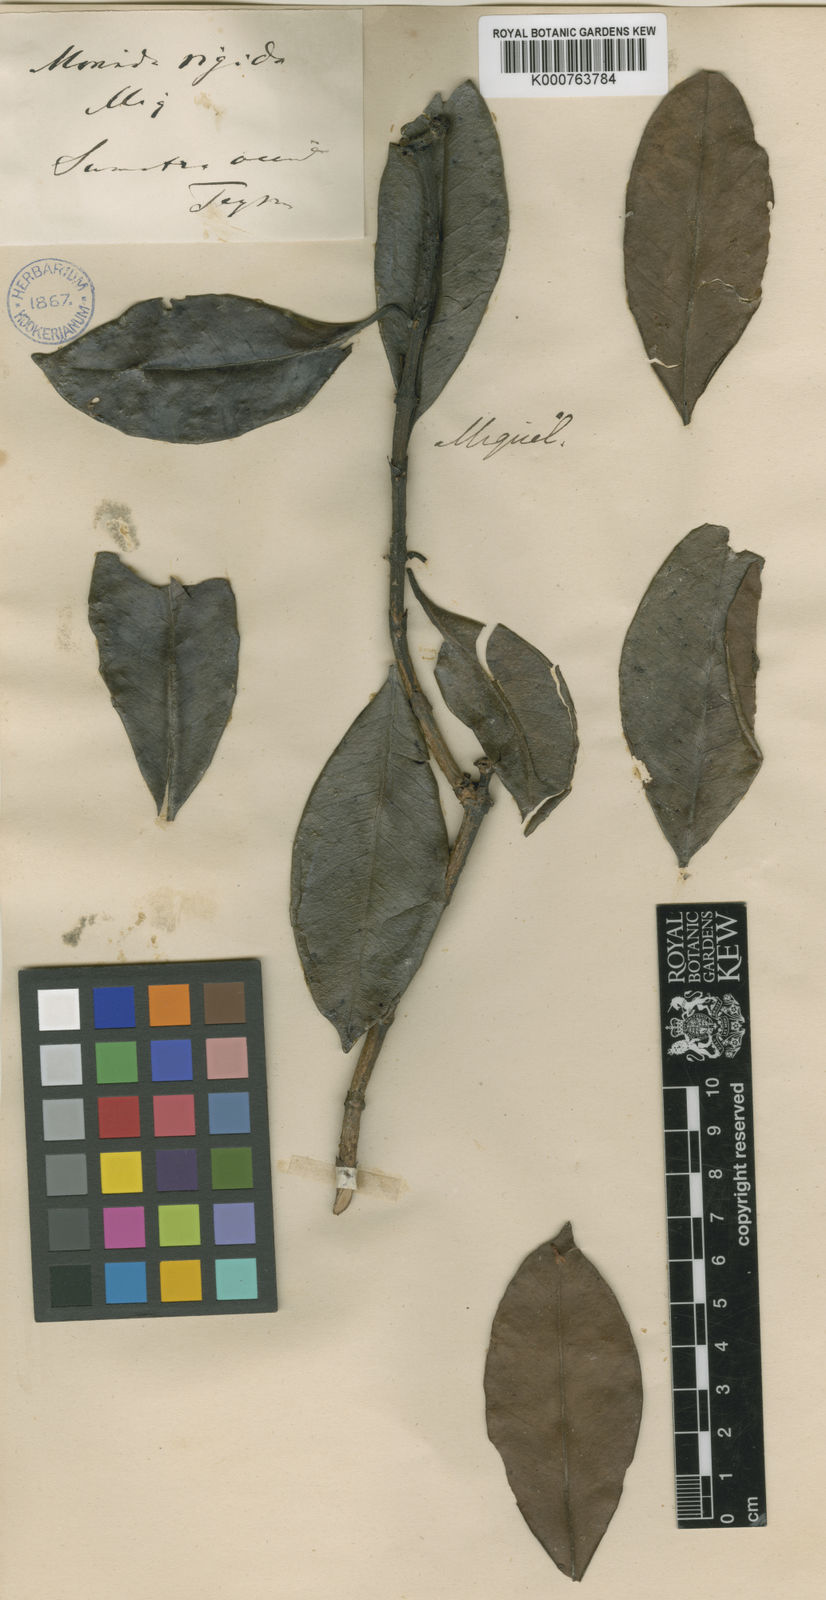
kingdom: Plantae
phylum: Tracheophyta
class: Magnoliopsida
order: Gentianales
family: Rubiaceae
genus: Gynochthodes
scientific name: Gynochthodes rigida
